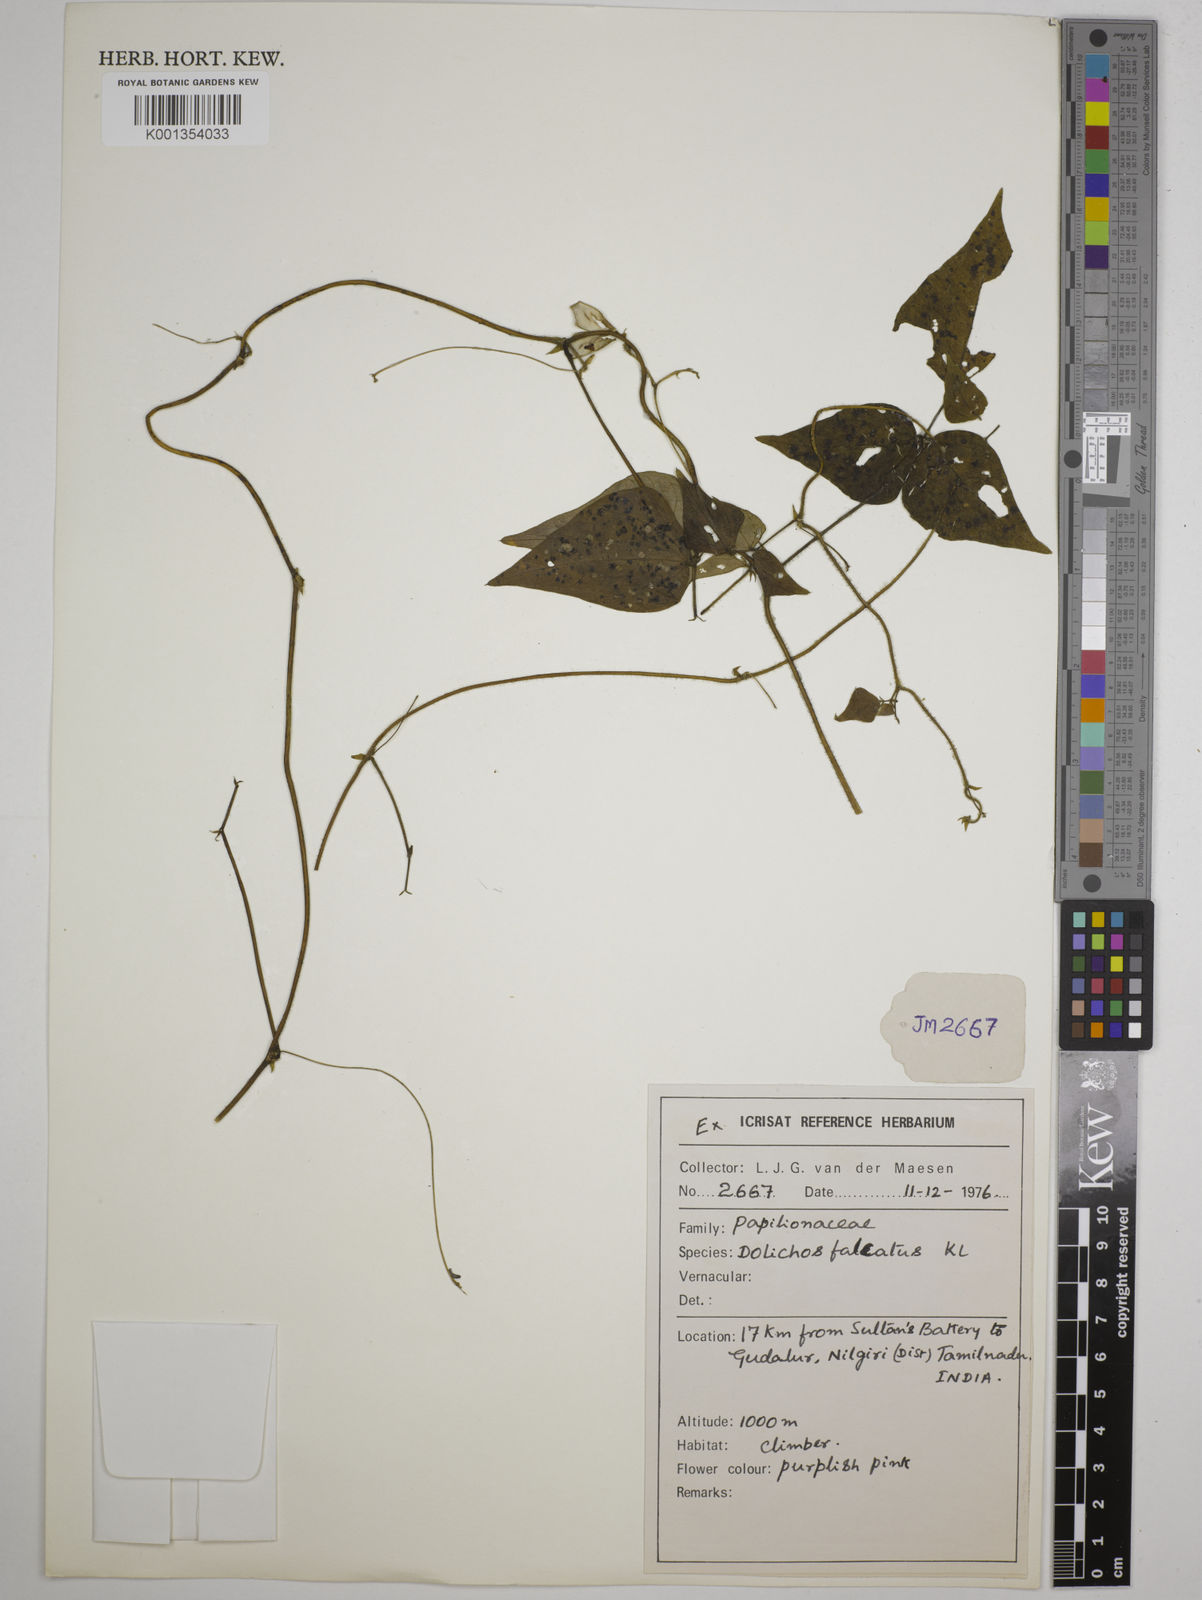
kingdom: Plantae
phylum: Tracheophyta
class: Magnoliopsida
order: Fabales
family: Fabaceae
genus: Dolichos
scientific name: Dolichos trilobus
